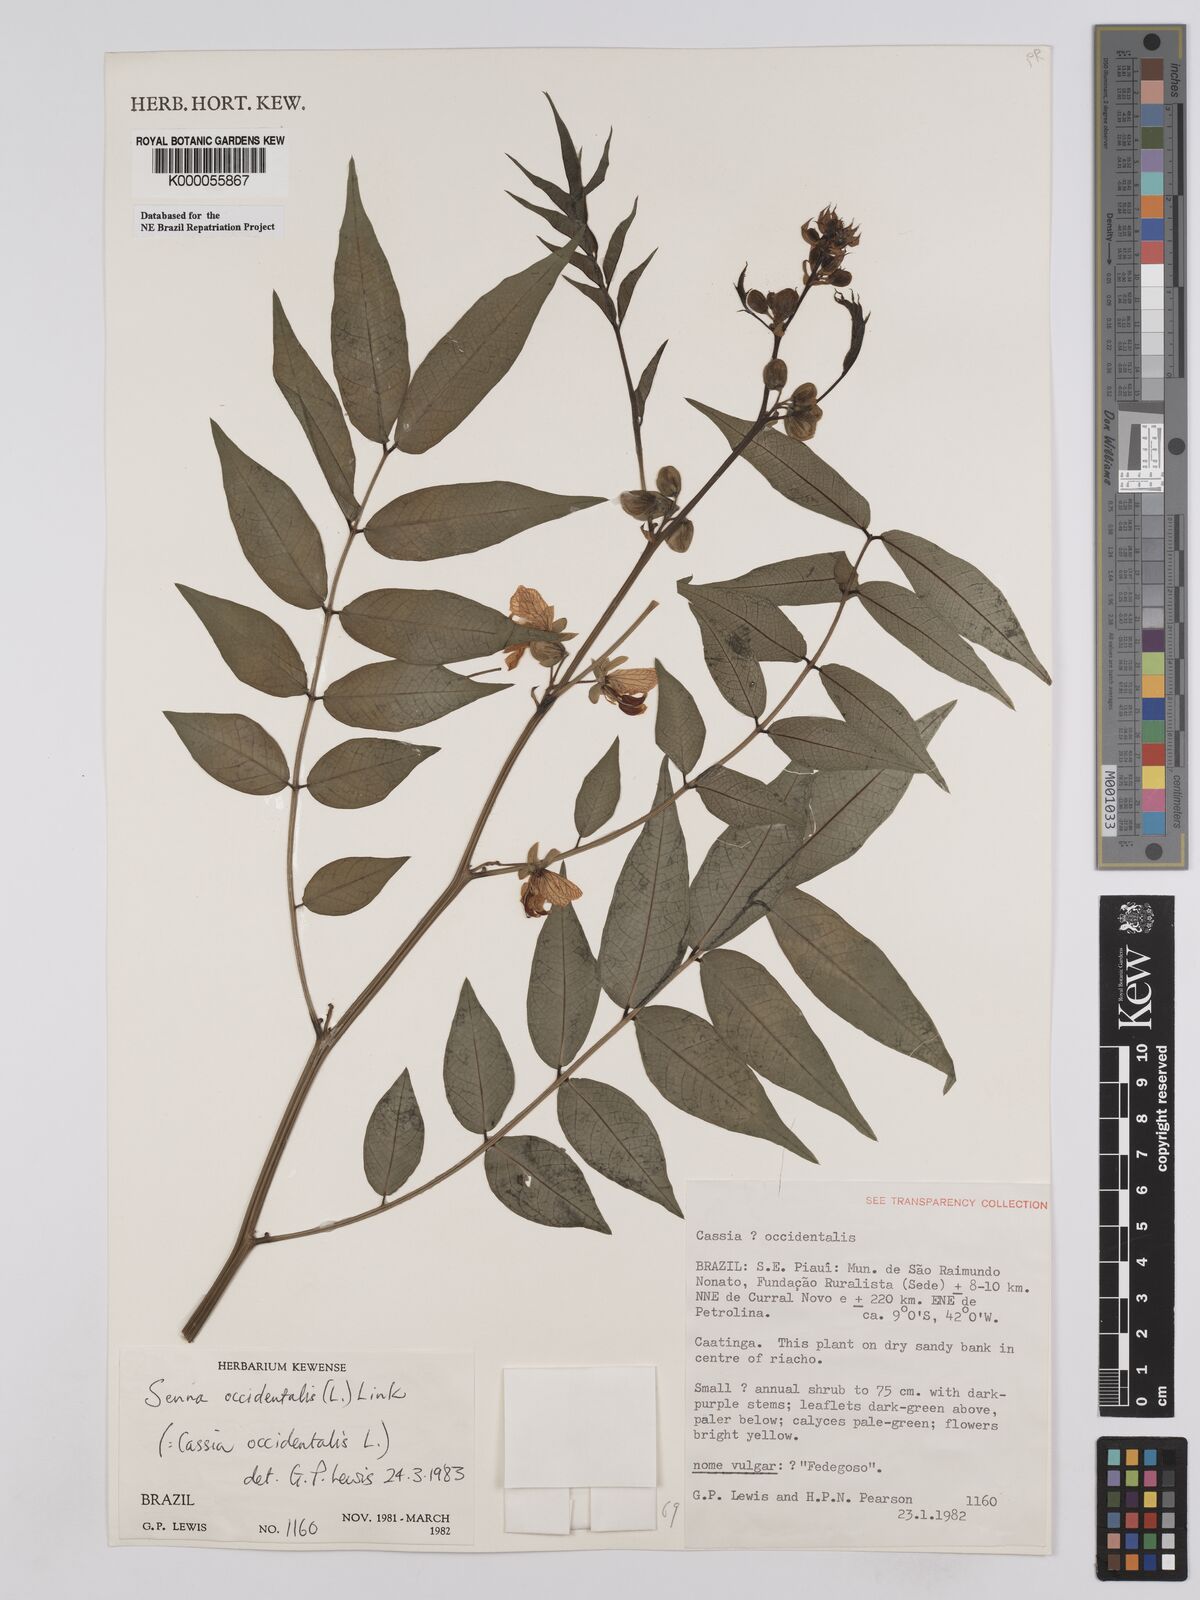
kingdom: Plantae
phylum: Tracheophyta
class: Magnoliopsida
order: Fabales
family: Fabaceae
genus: Senna
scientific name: Senna occidentalis
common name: Septicweed
